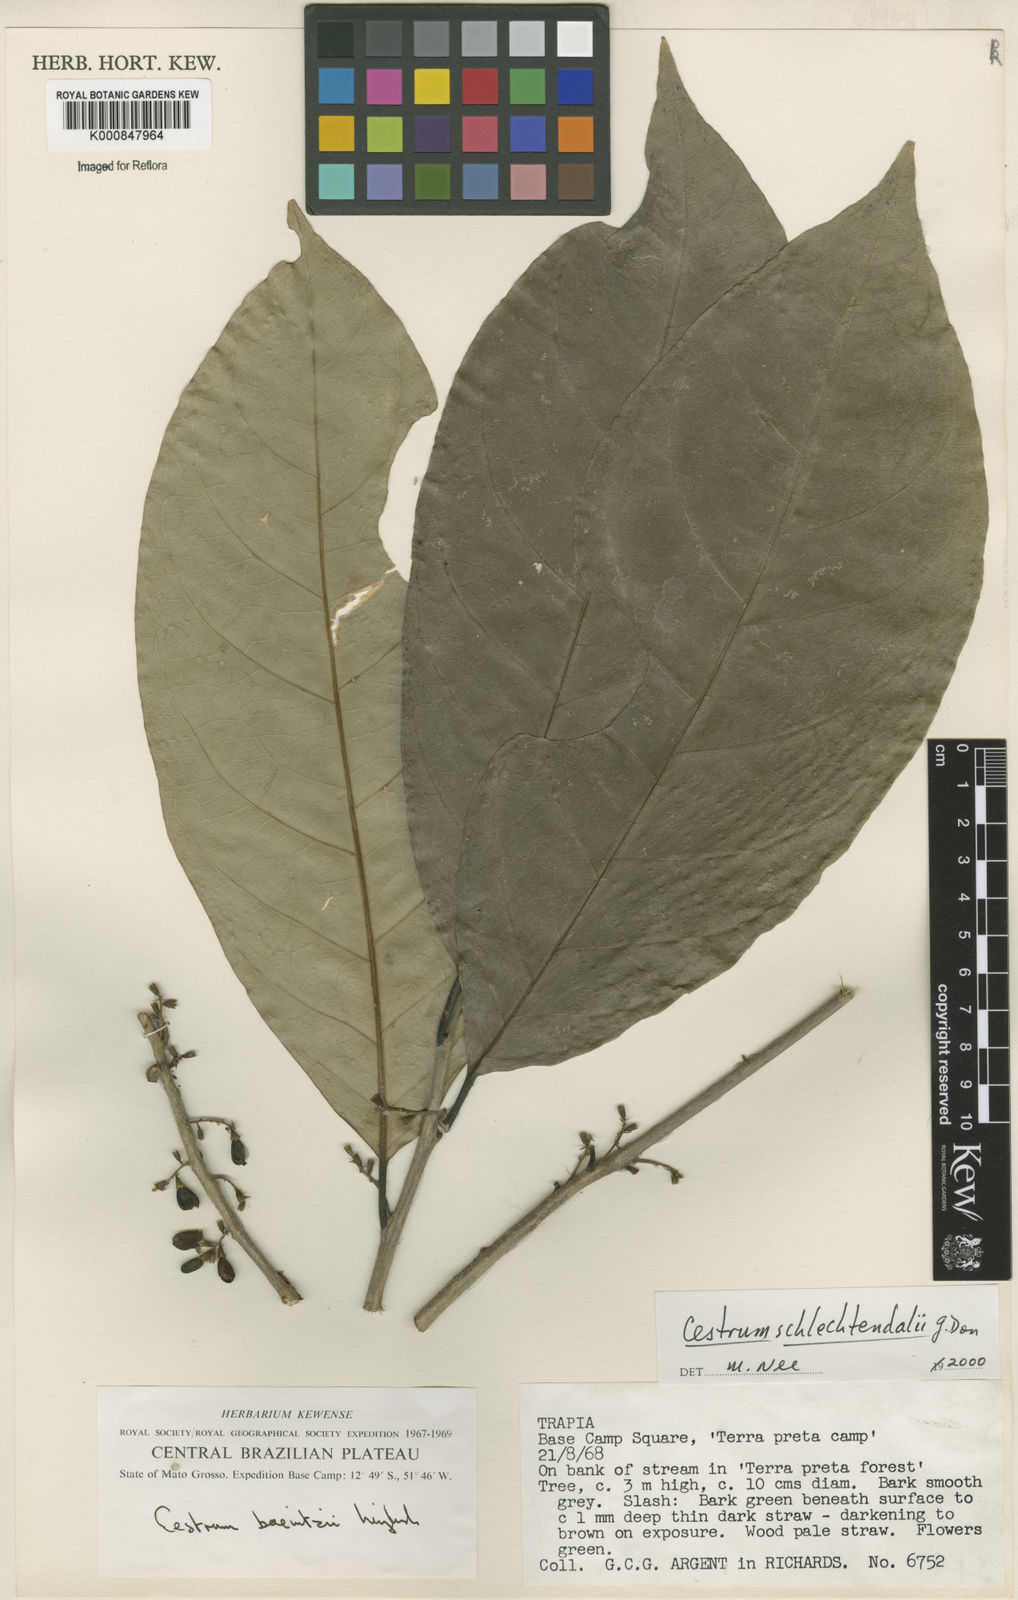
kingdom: Plantae
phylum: Tracheophyta
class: Magnoliopsida
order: Solanales
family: Solanaceae
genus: Cestrum
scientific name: Cestrum schlechtendalii
